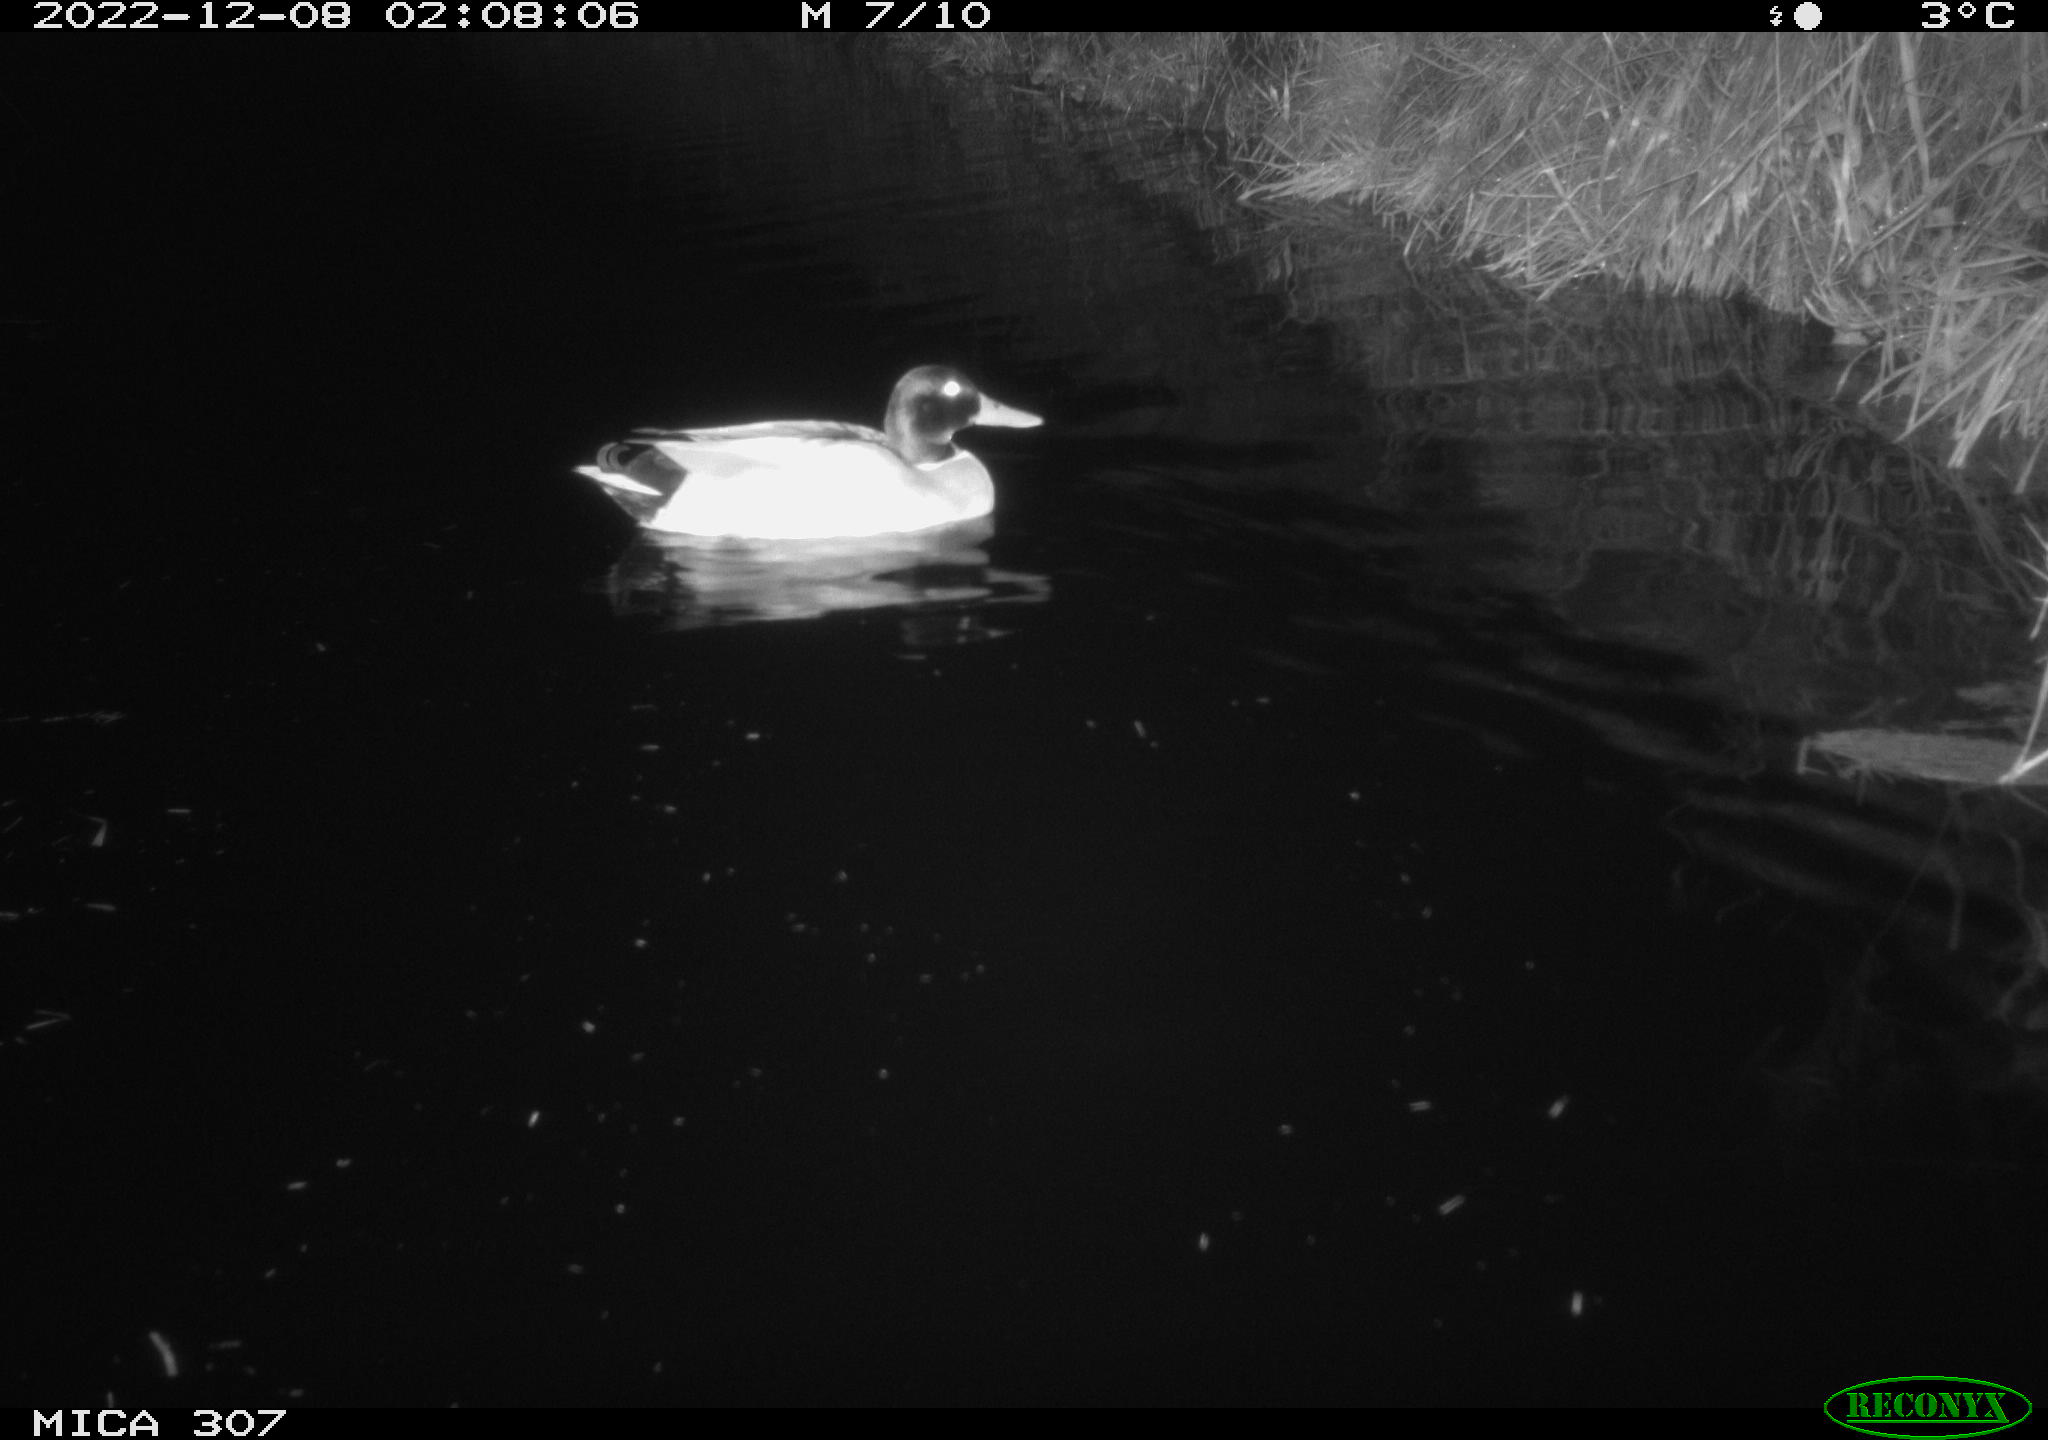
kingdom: Animalia
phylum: Chordata
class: Aves
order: Anseriformes
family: Anatidae
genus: Anas
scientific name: Anas
